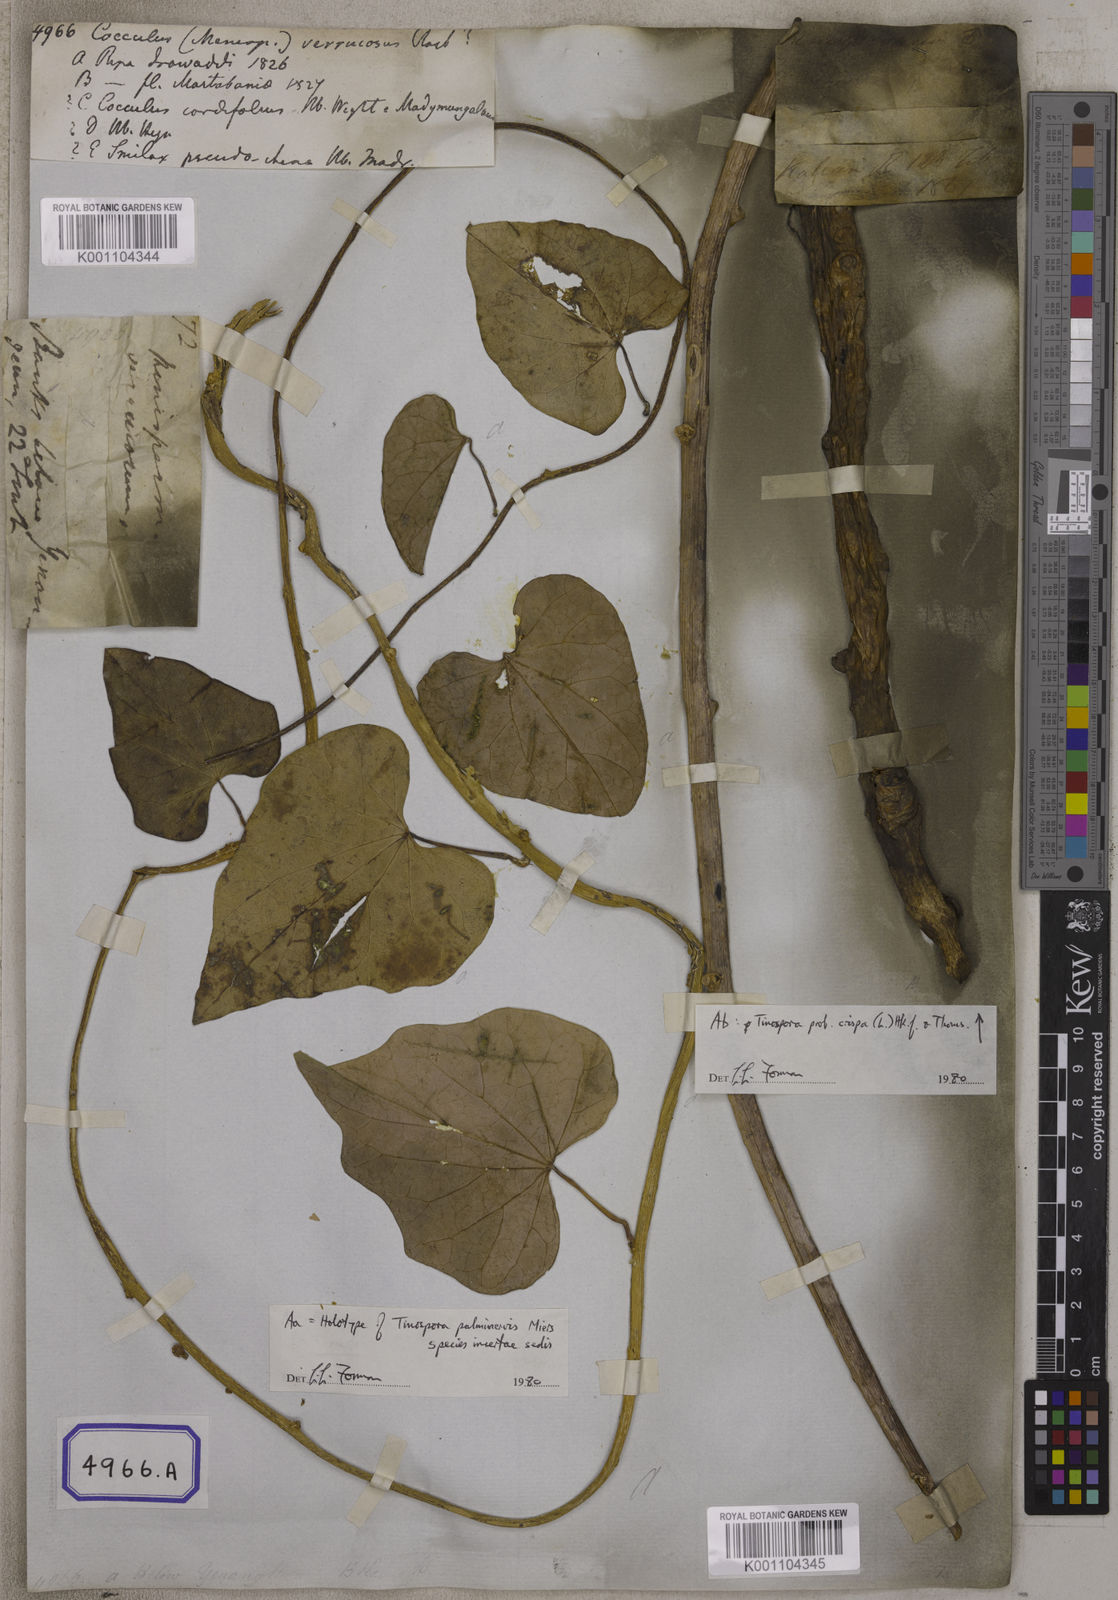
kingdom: Plantae
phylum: Tracheophyta
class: Magnoliopsida
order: Ranunculales
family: Menispermaceae
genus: Tinospora
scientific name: Tinospora crispa
